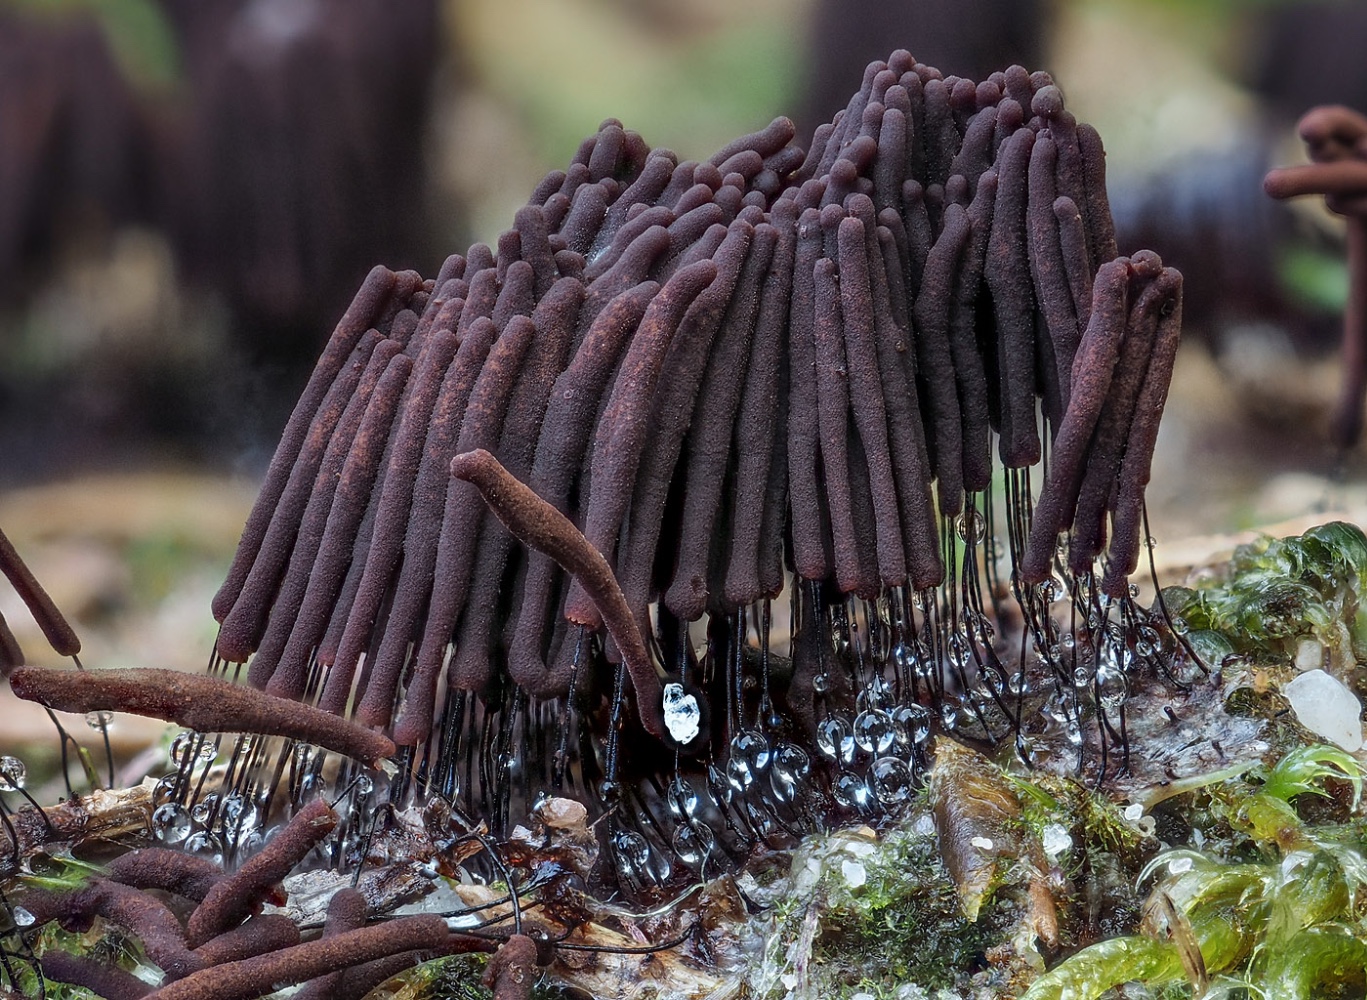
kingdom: Protozoa
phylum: Mycetozoa
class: Myxomycetes
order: Stemonitidales
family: Stemonitidaceae
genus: Stemonitis
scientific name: Stemonitis axifera
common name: rødbrun støvkølle
